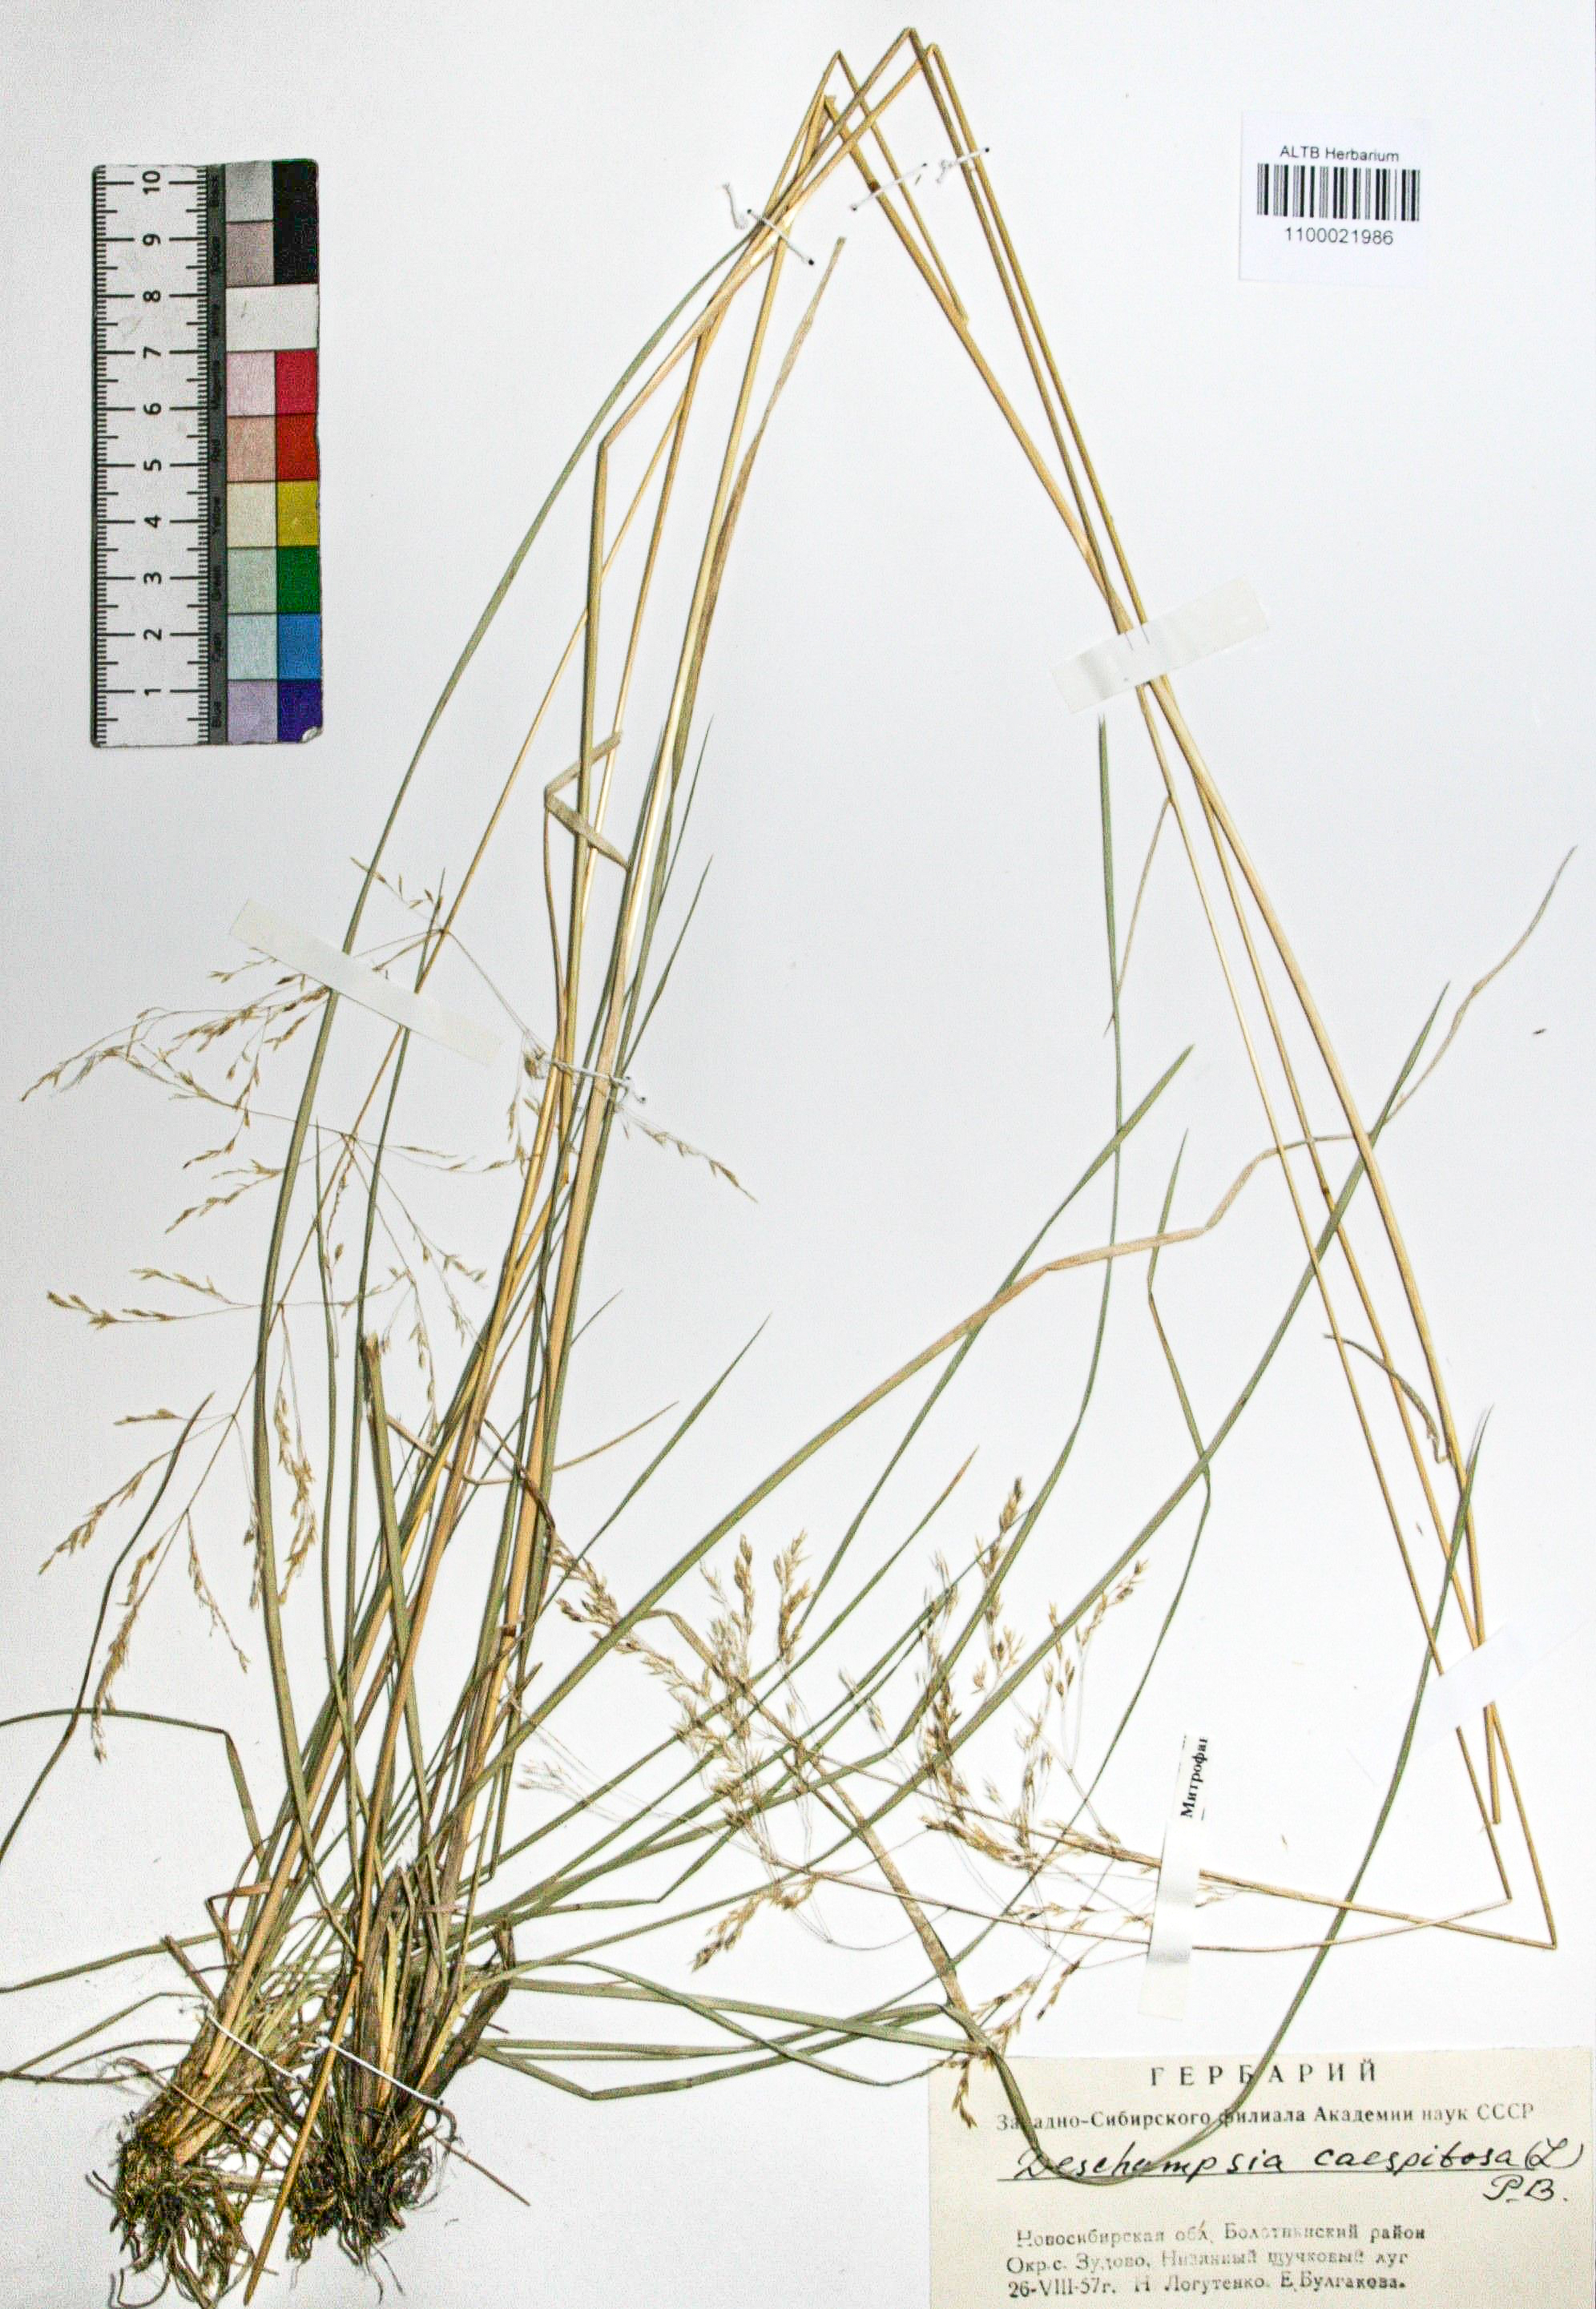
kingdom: Plantae
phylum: Tracheophyta
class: Liliopsida
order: Poales
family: Poaceae
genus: Deschampsia
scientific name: Deschampsia cespitosa
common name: Tufted hair-grass
